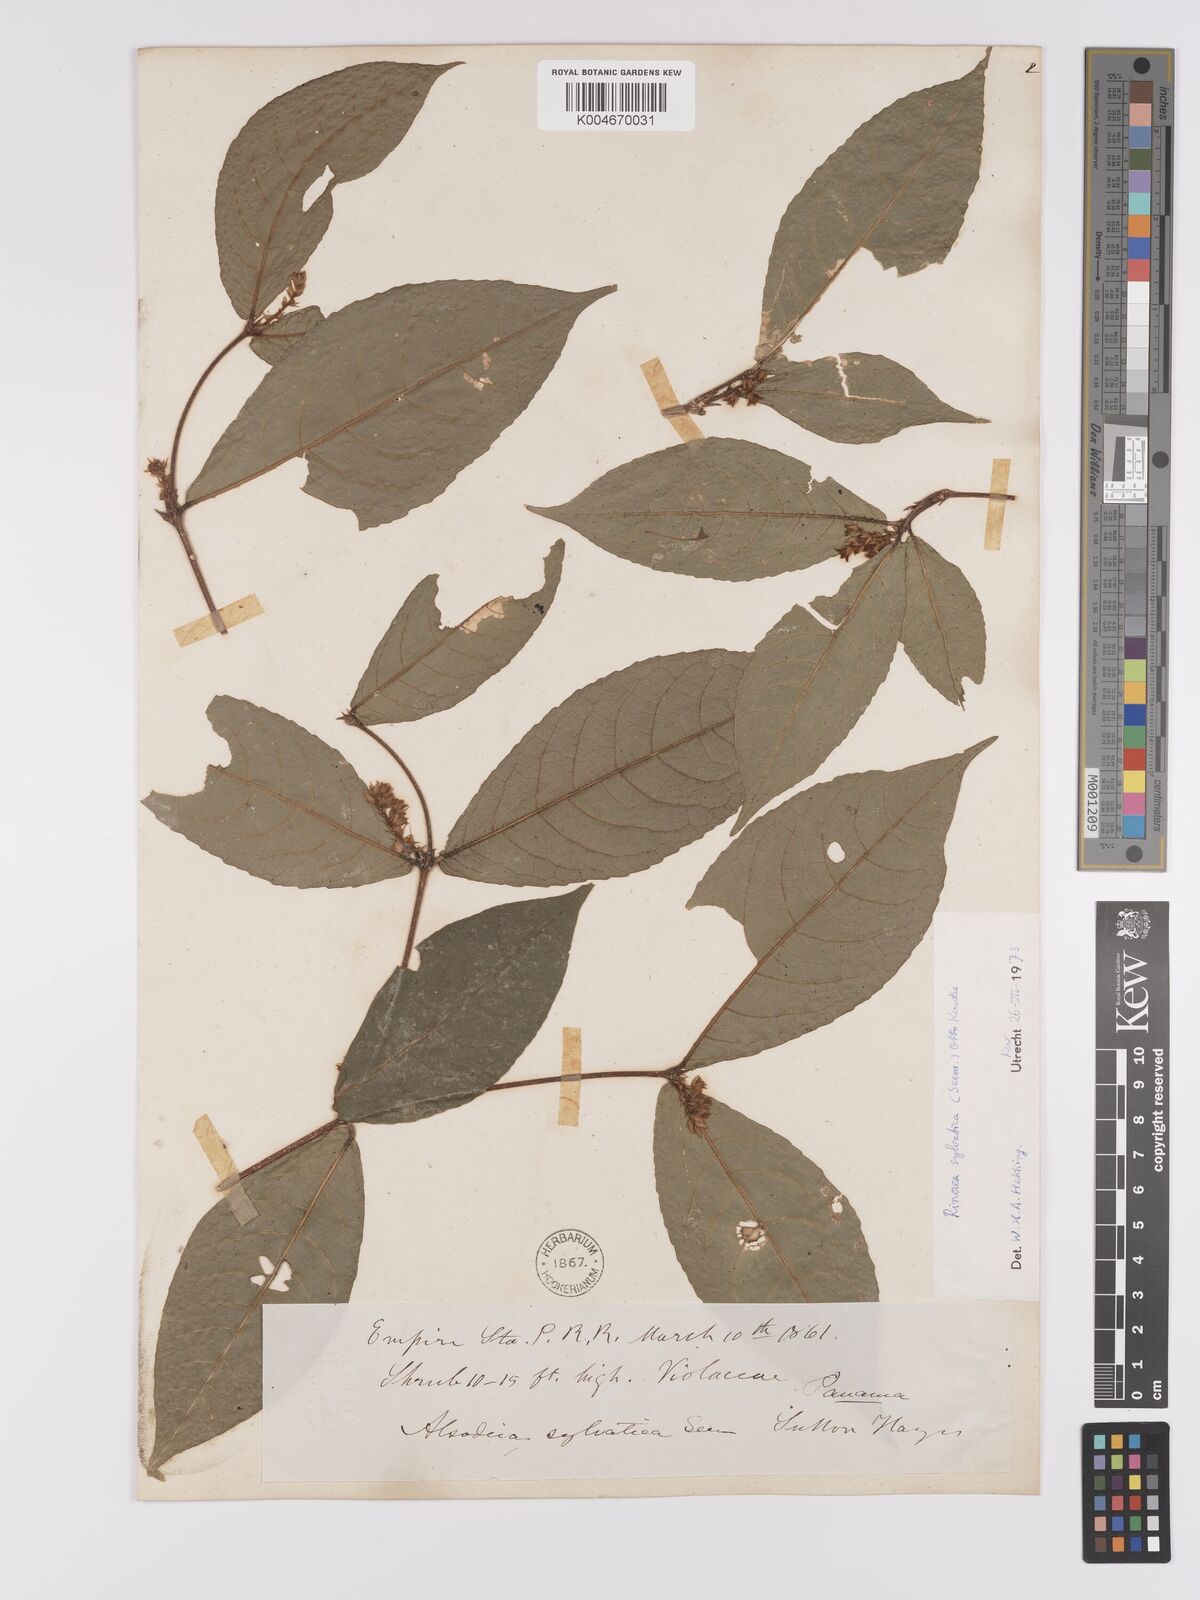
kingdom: Plantae
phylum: Tracheophyta
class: Magnoliopsida
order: Malpighiales
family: Violaceae
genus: Rinorea
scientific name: Rinorea sylvatica
